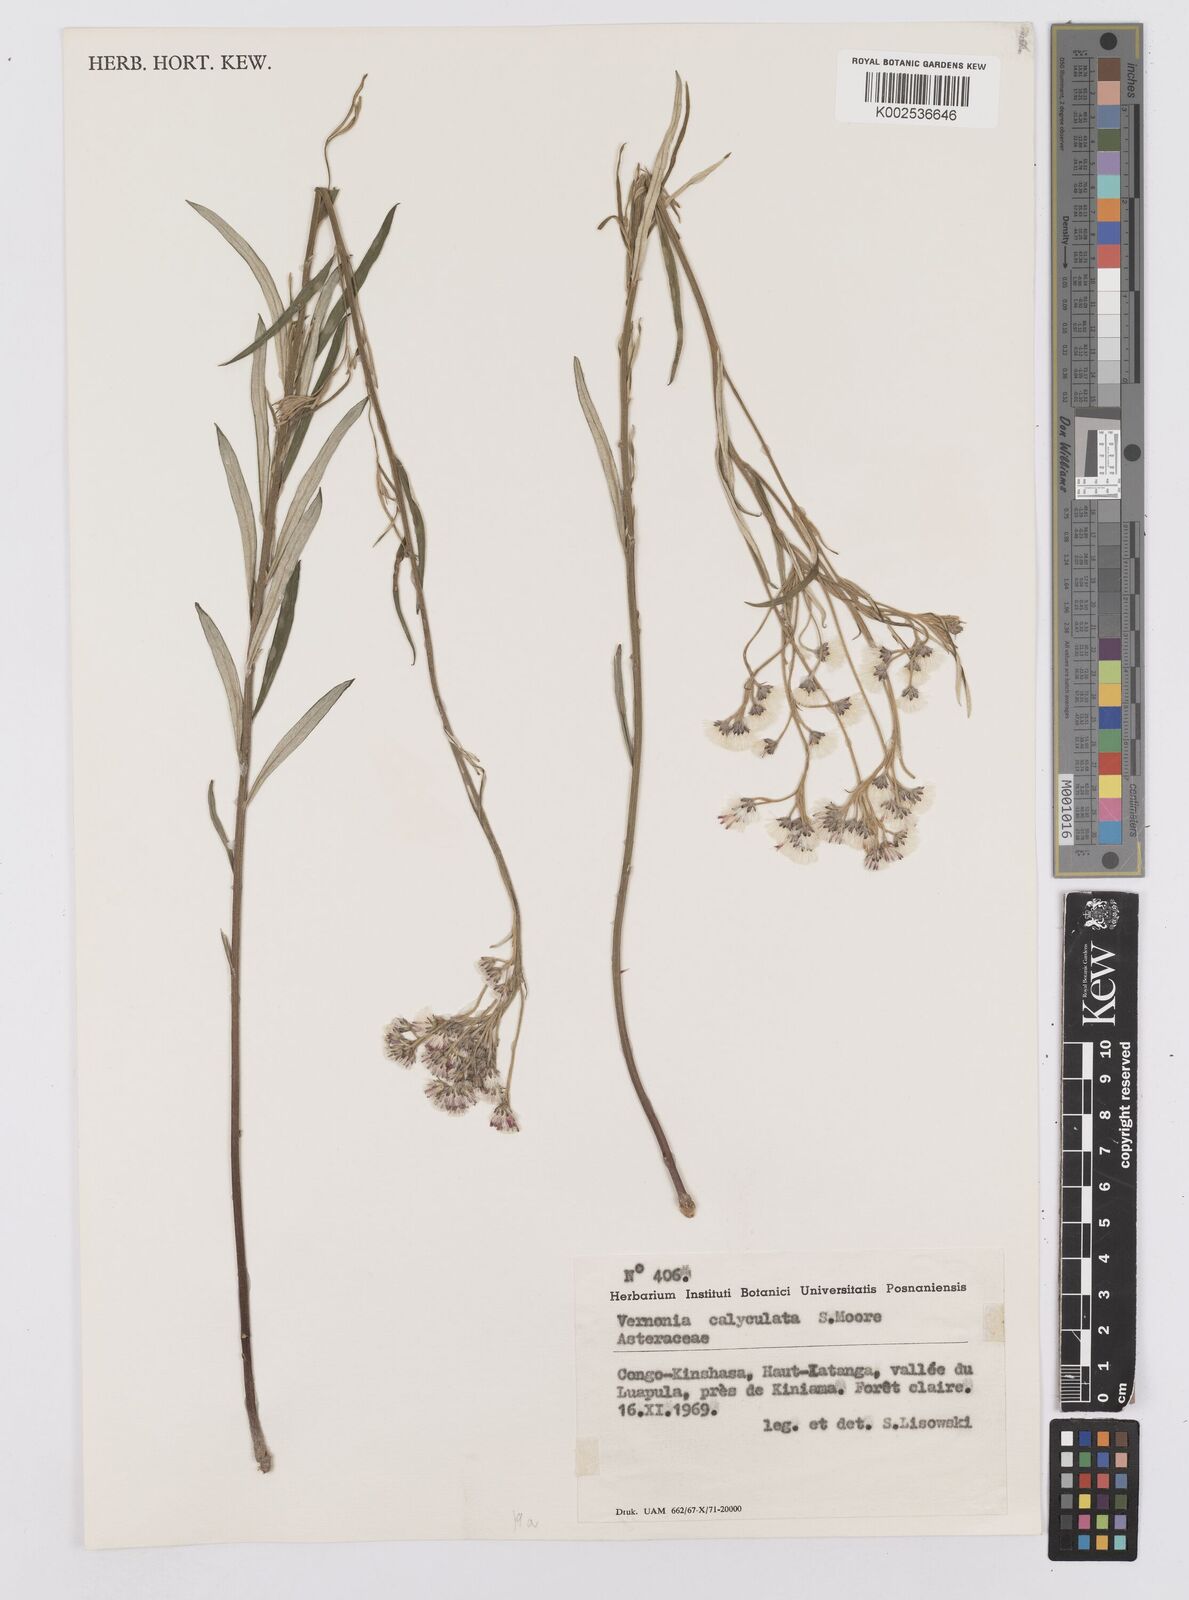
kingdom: Plantae
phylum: Tracheophyta
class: Magnoliopsida
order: Asterales
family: Asteraceae
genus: Hilliardiella
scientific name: Hilliardiella calyculata
